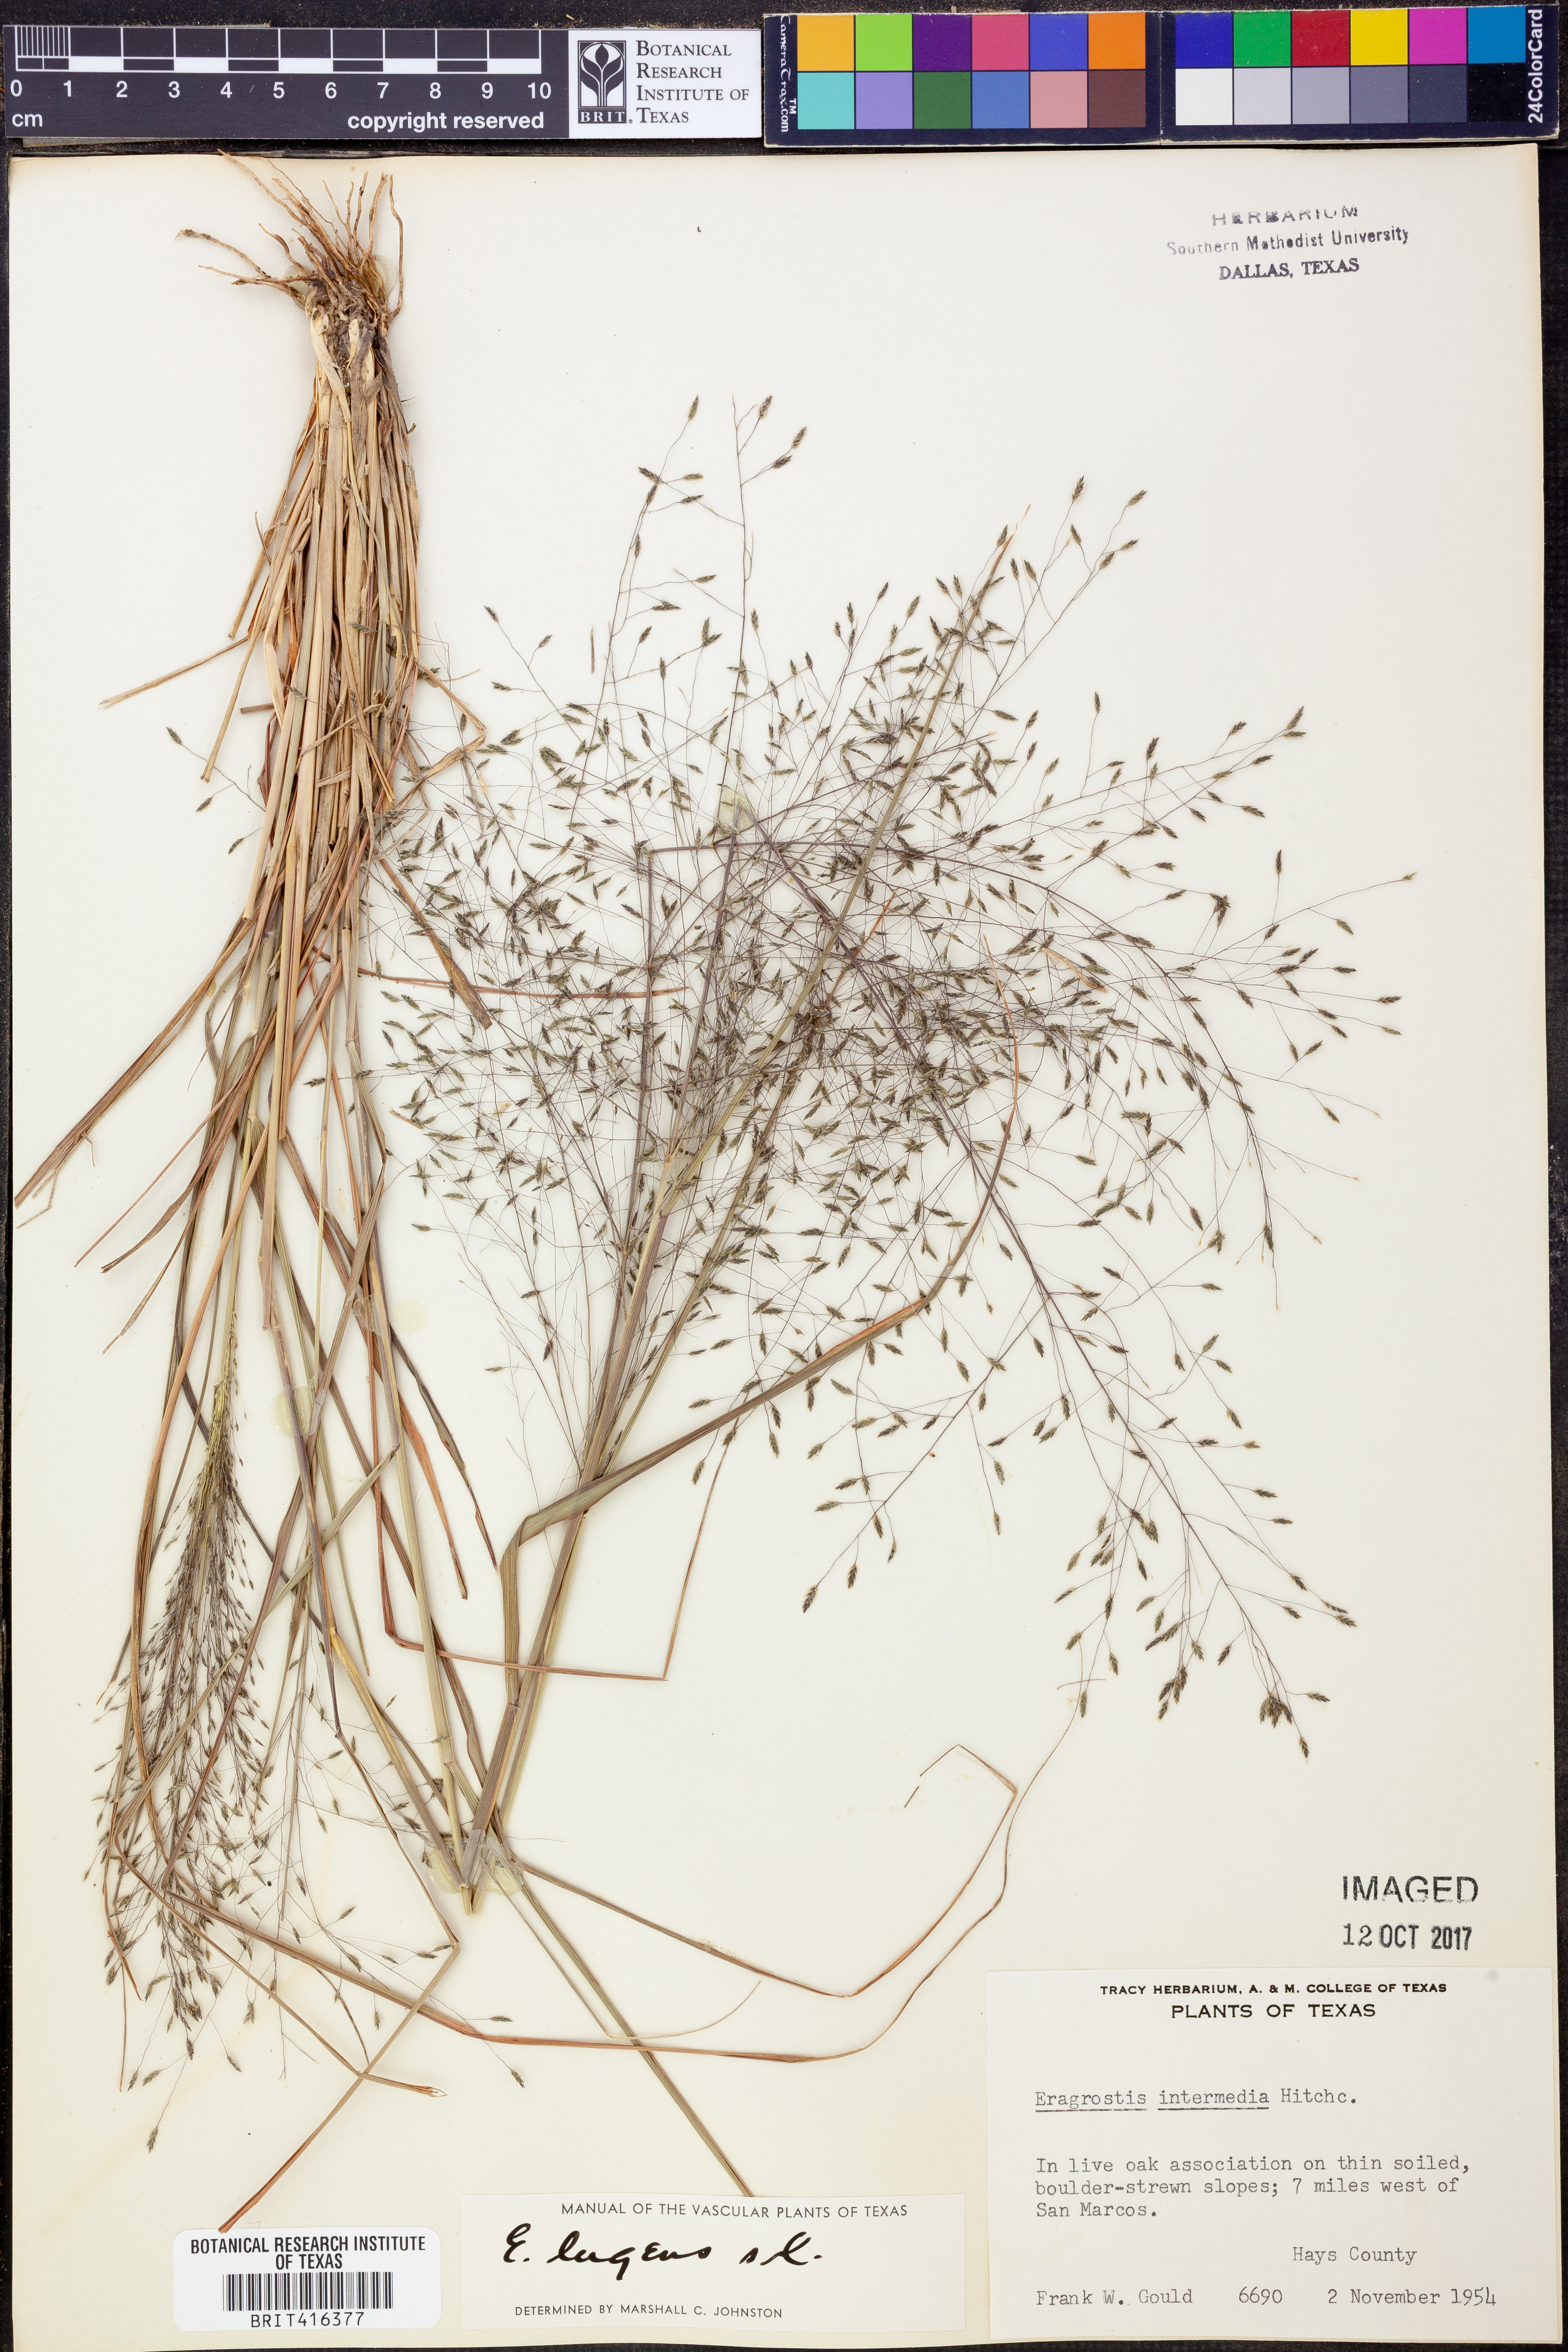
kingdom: Plantae
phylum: Tracheophyta
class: Liliopsida
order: Poales
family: Poaceae
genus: Eragrostis
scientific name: Eragrostis capillaris
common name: Hair-like lovegrass
